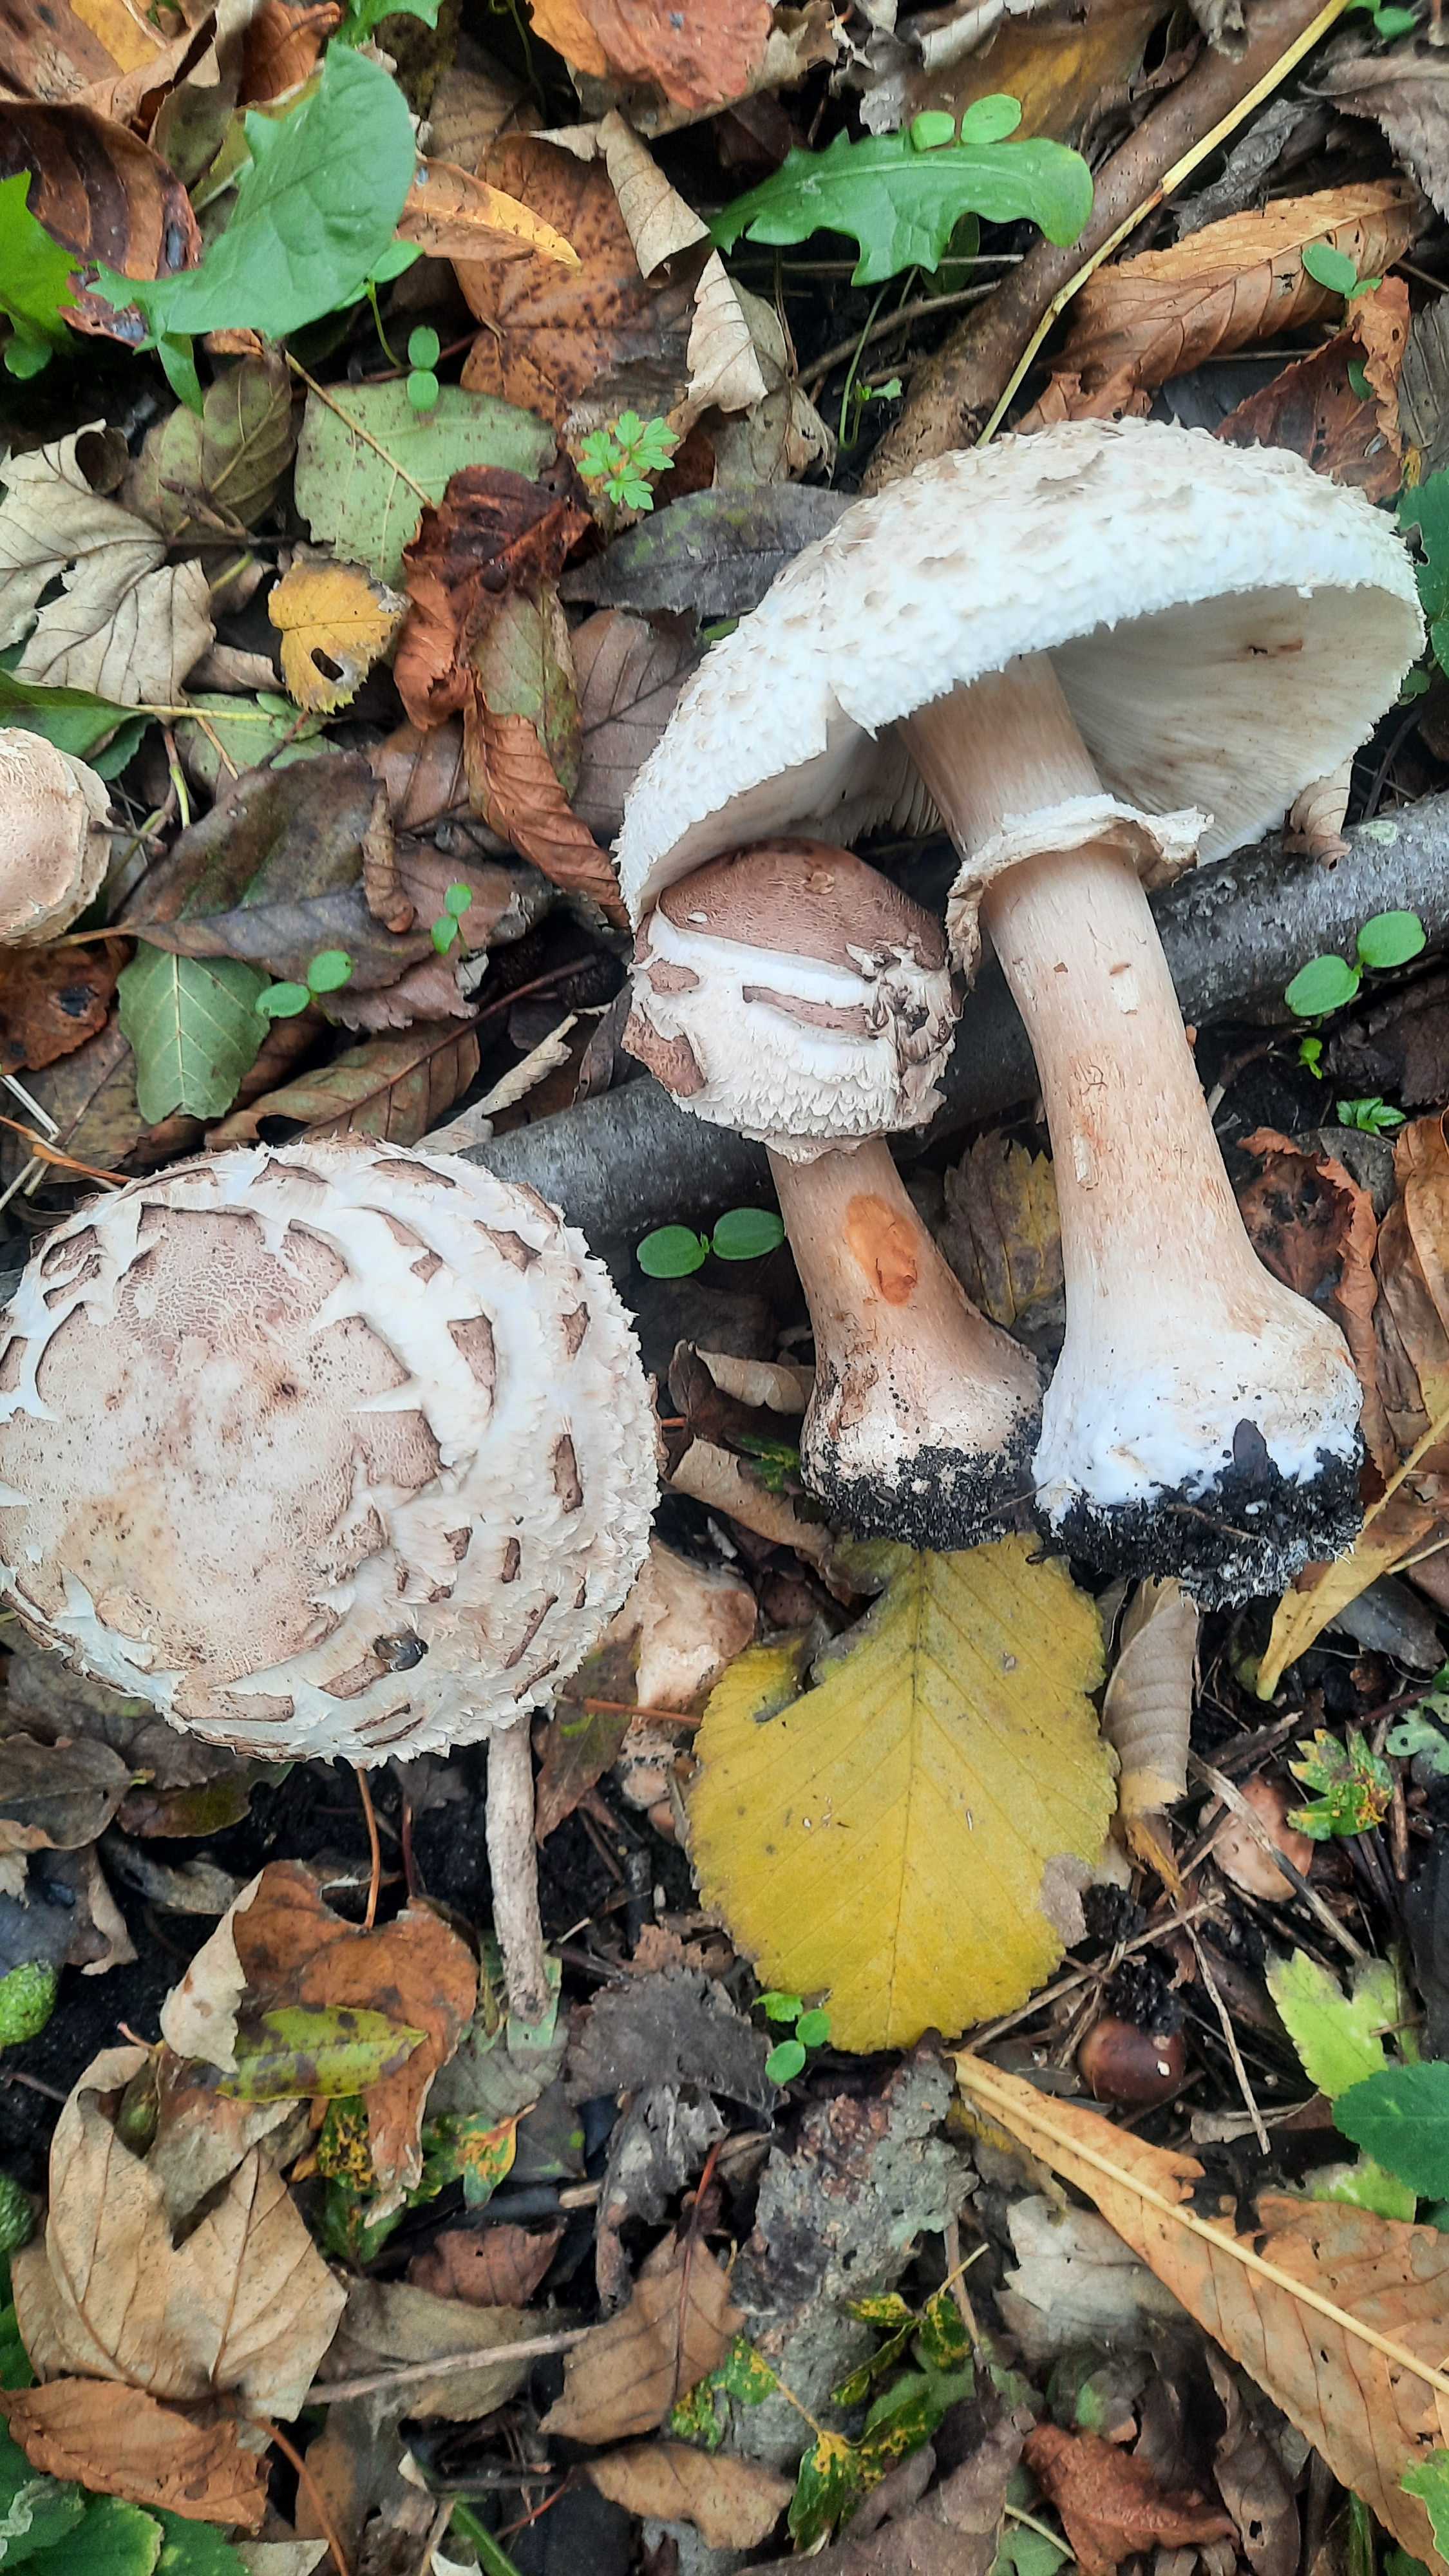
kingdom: Fungi
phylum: Basidiomycota
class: Agaricomycetes
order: Agaricales
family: Agaricaceae
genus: Chlorophyllum
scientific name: Chlorophyllum rhacodes
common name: ægte rabarberhat
